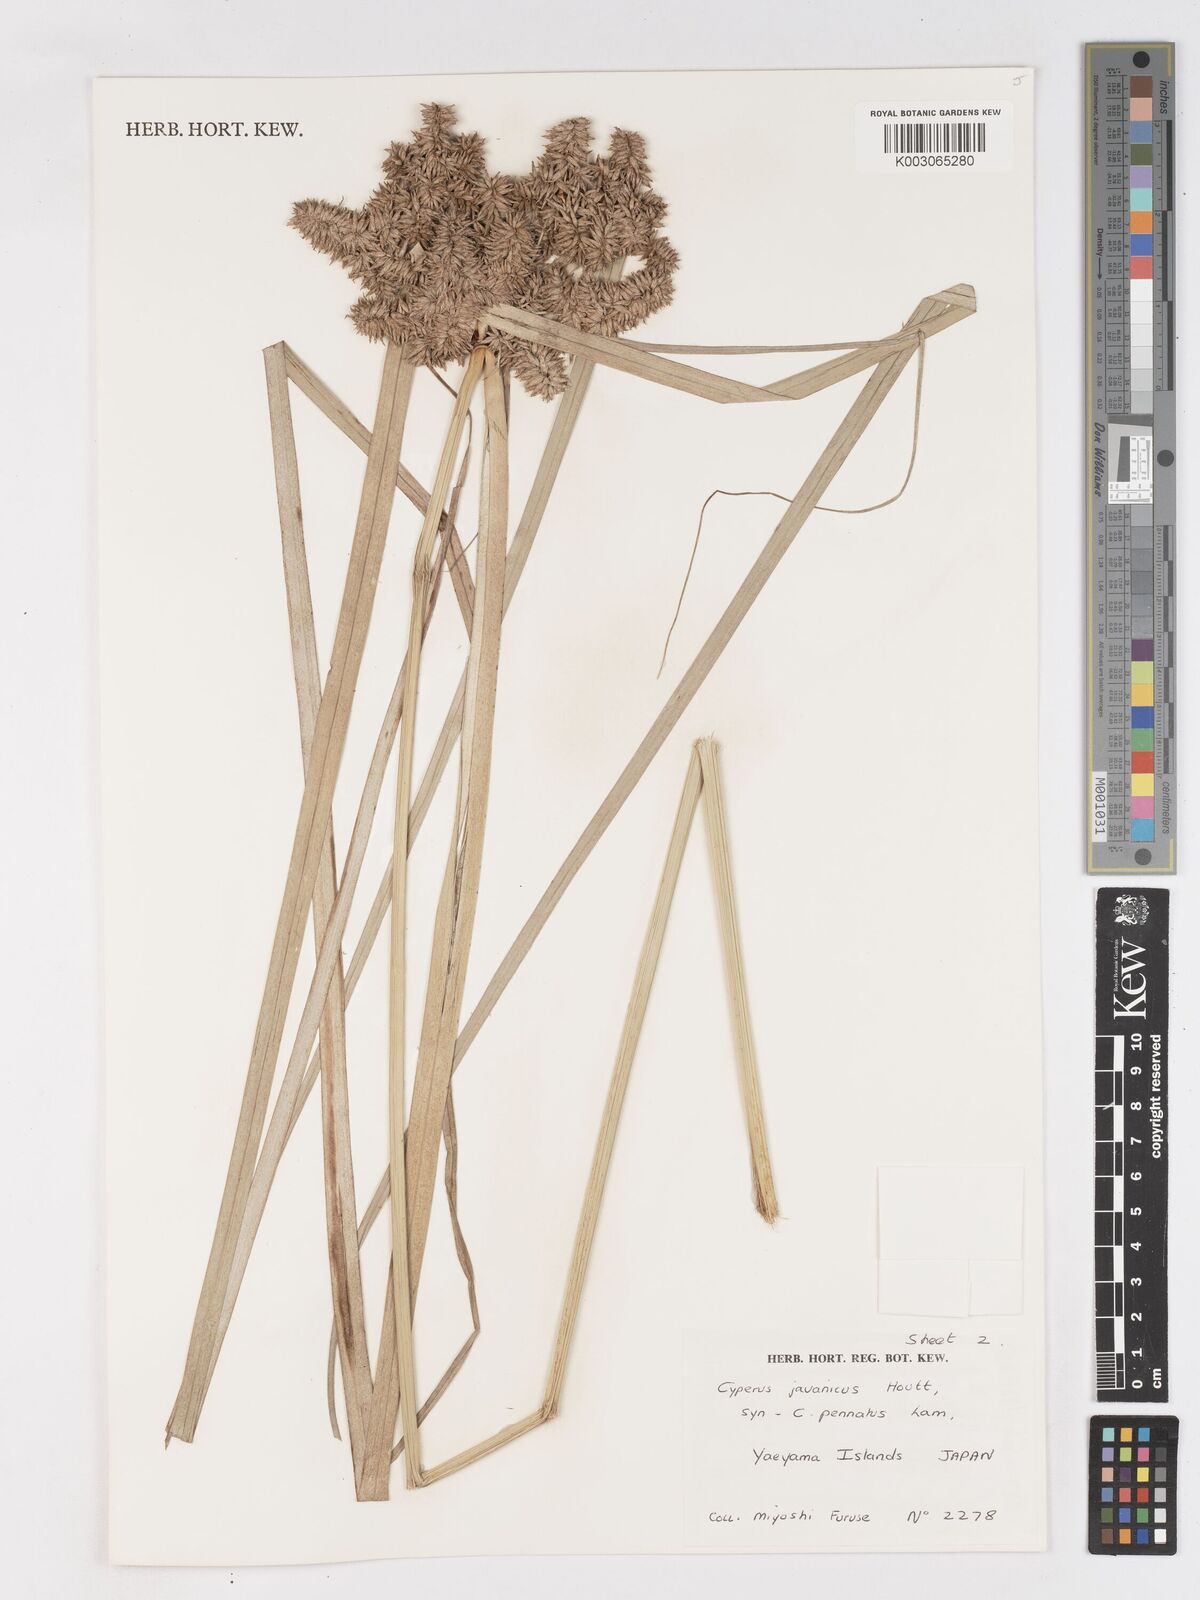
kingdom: Plantae
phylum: Tracheophyta
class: Liliopsida
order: Poales
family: Cyperaceae
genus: Cyperus
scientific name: Cyperus javanicus
